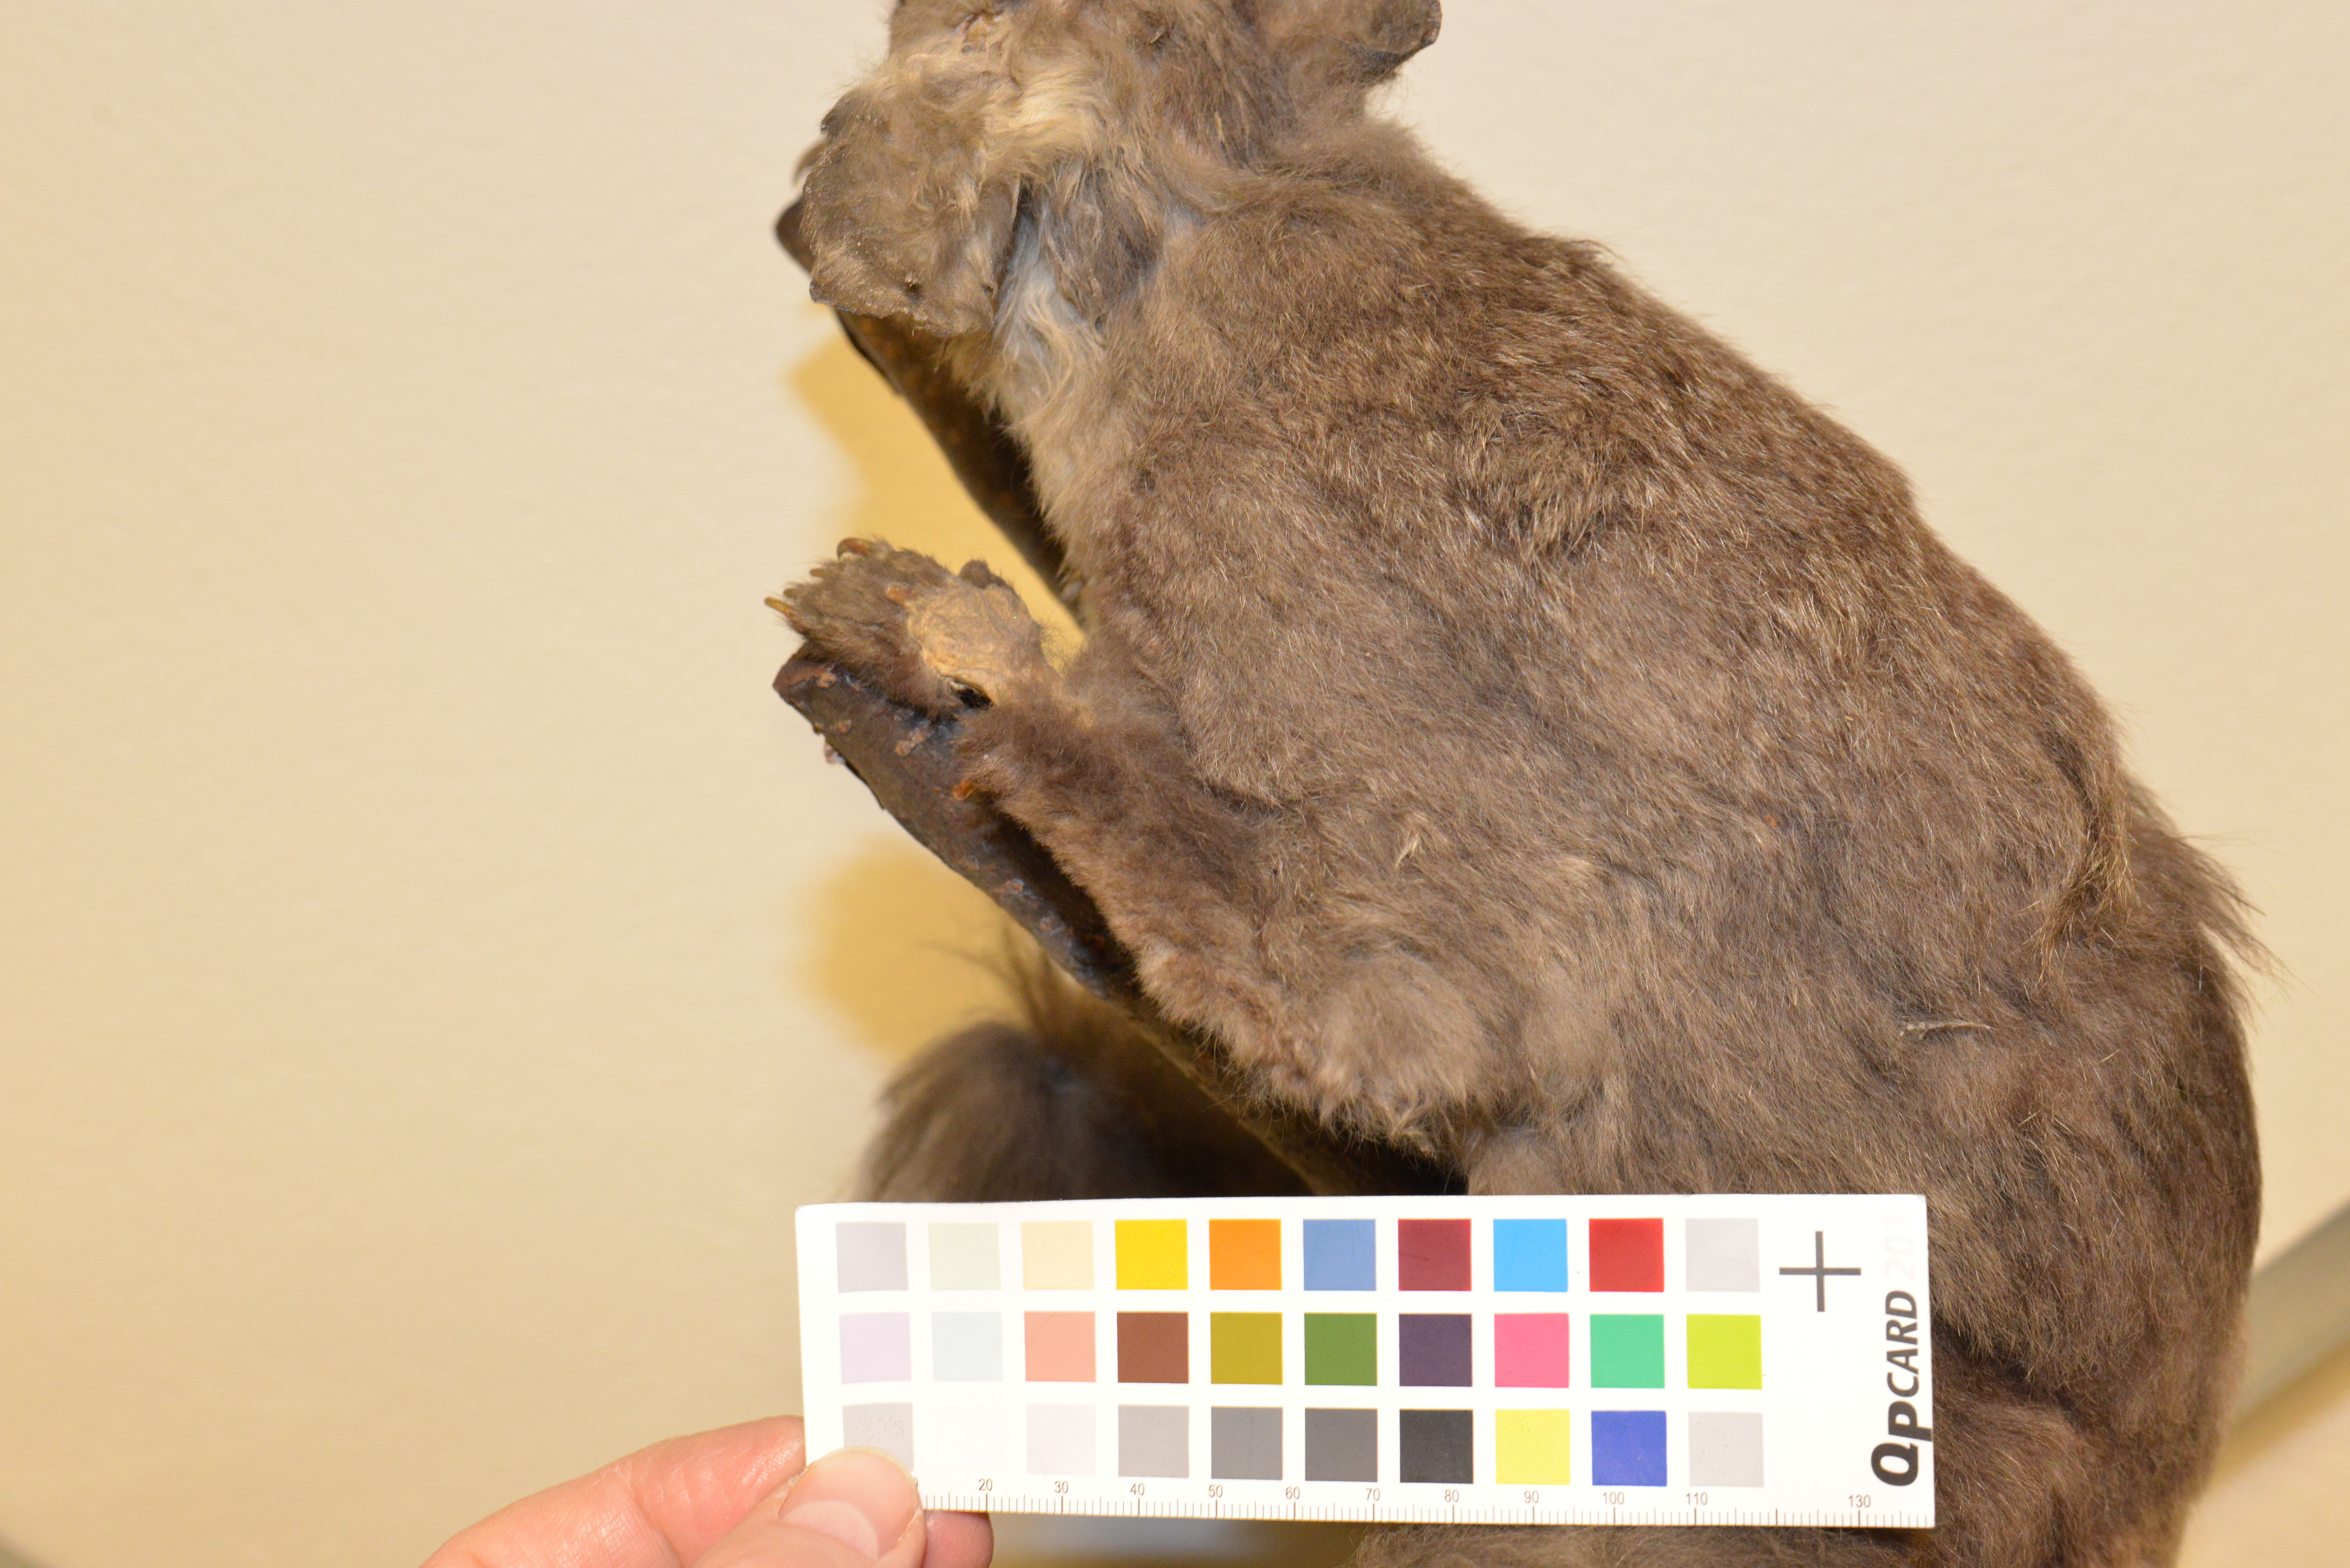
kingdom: Animalia
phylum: Chordata
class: Mammalia
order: Diprotodontia
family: Pseudocheiridae
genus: Petauroides
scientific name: Petauroides volans
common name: Greater glider
